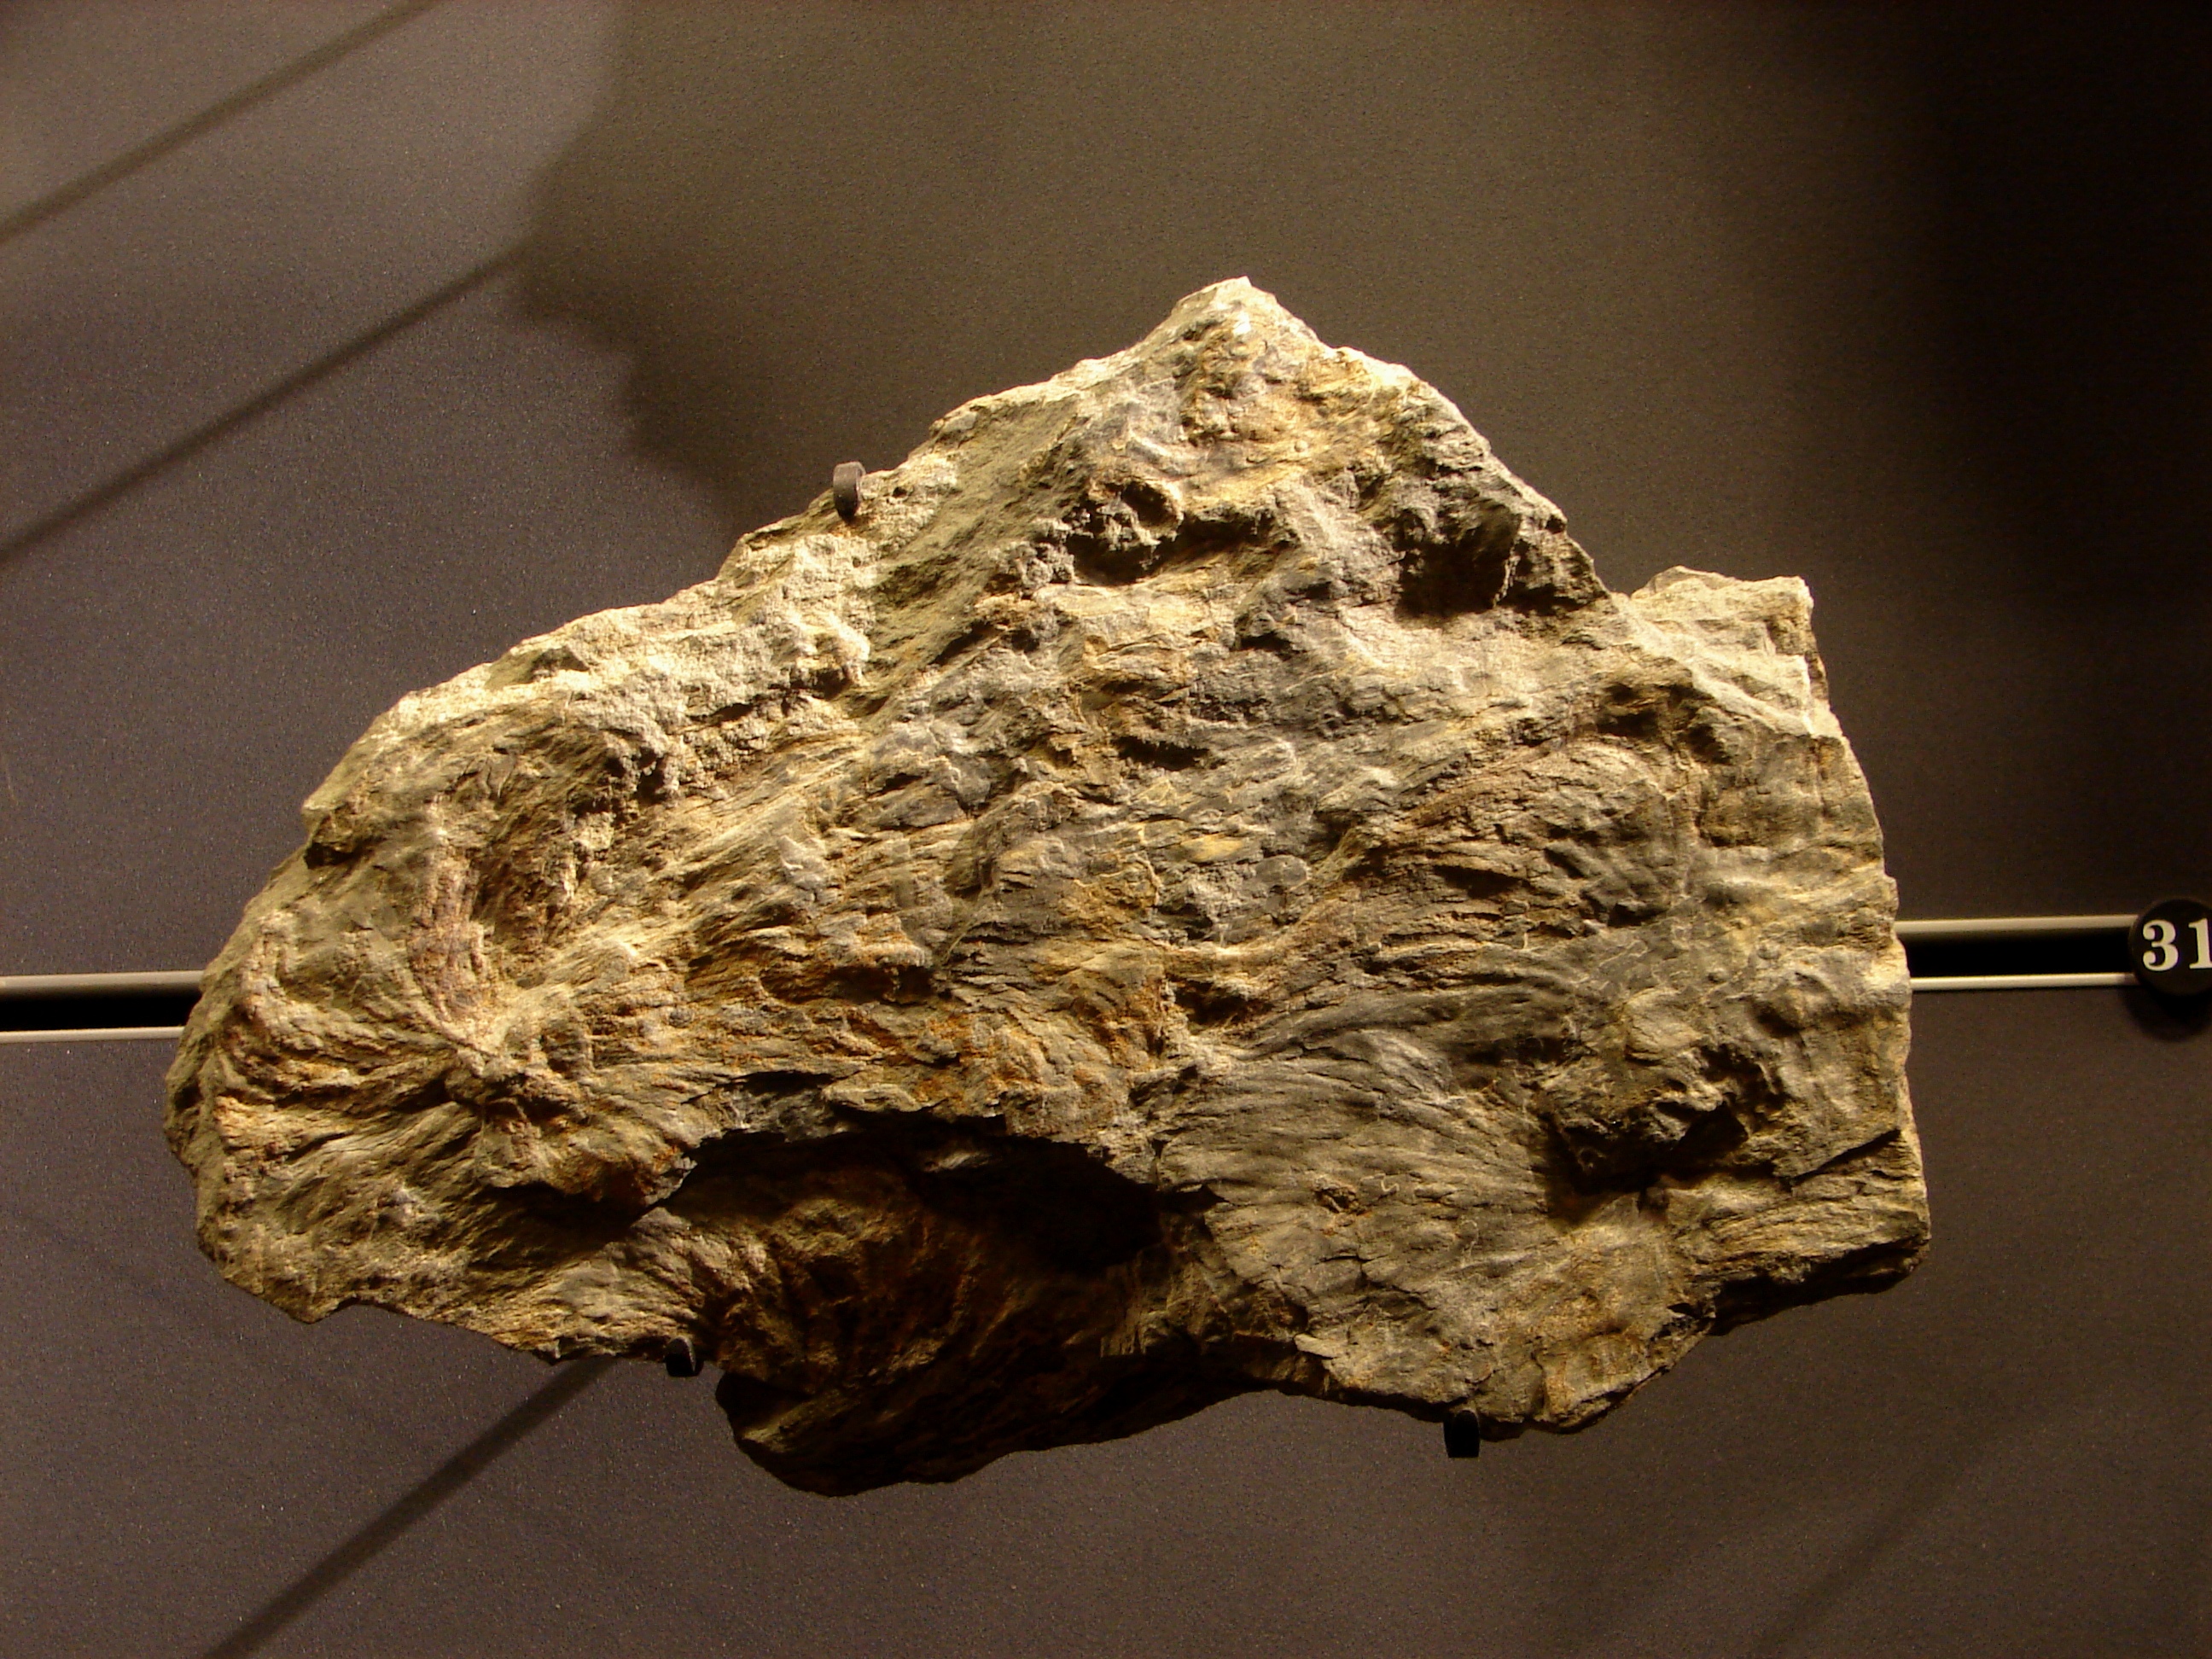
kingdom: Plantae
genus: Spirophyton
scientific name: Spirophyton
